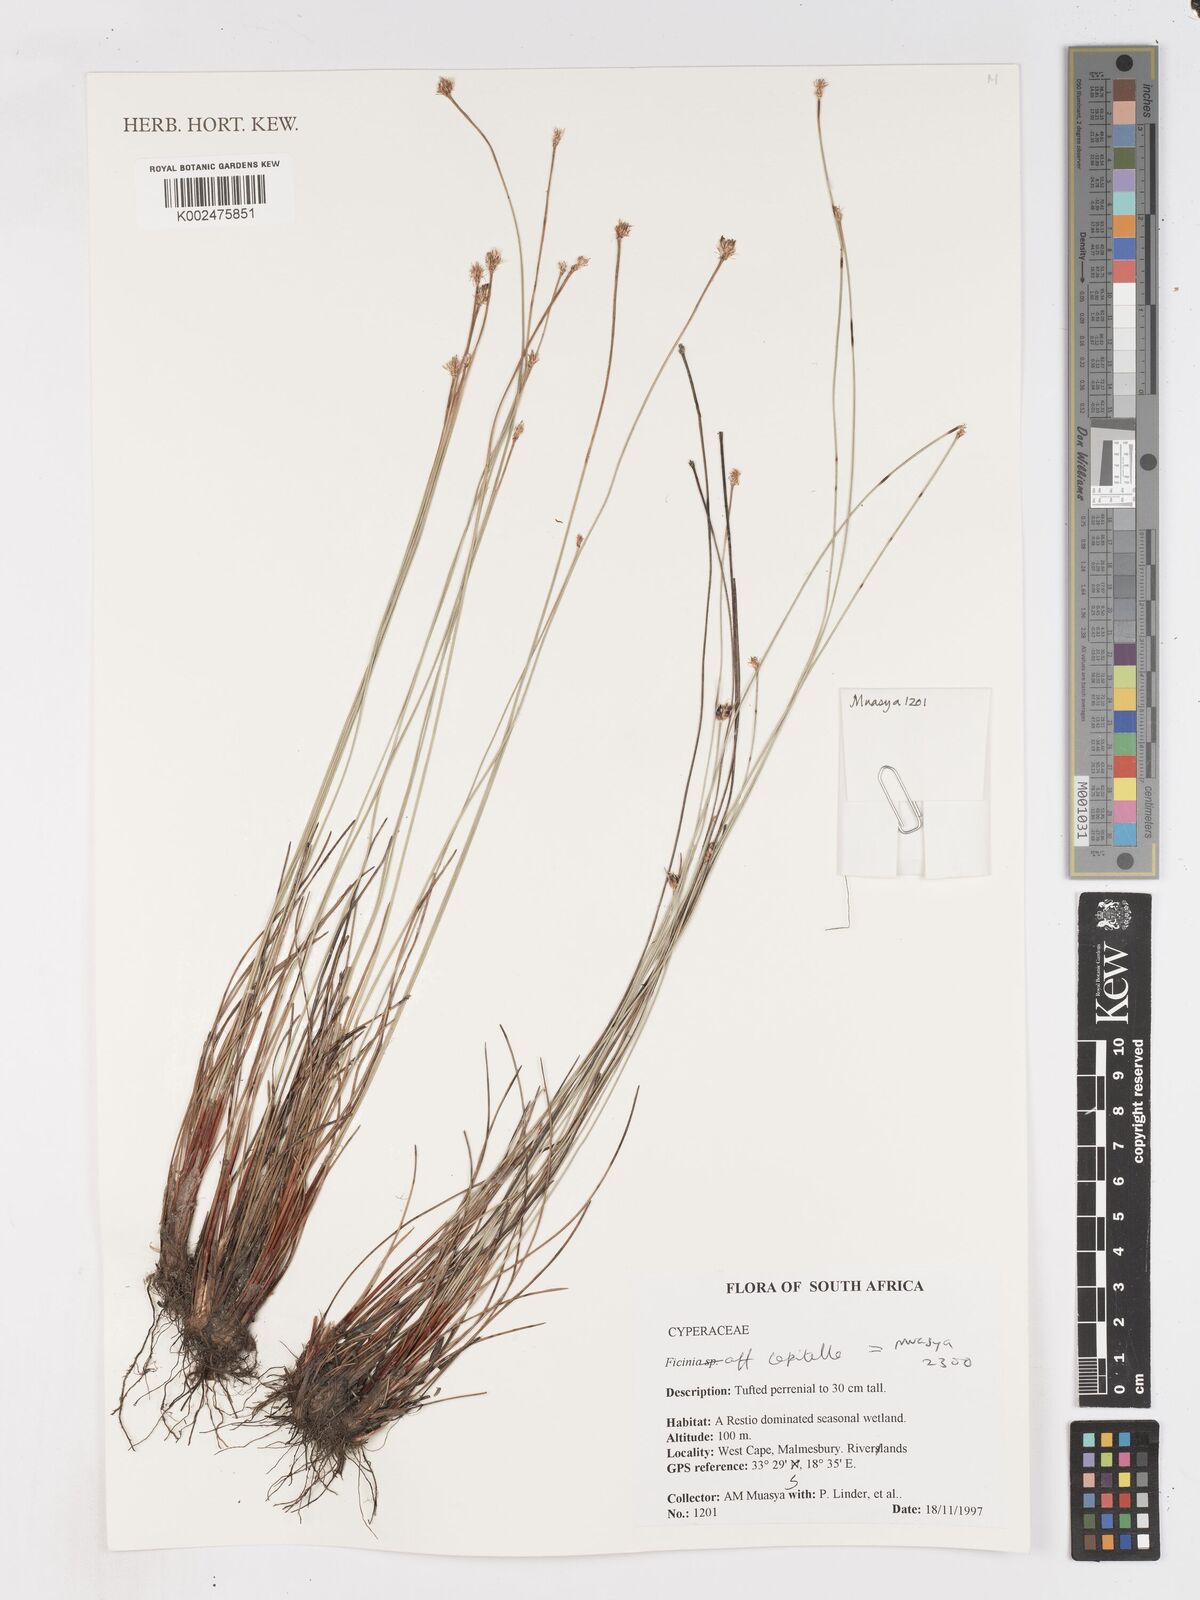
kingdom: Plantae
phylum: Tracheophyta
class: Liliopsida
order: Poales
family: Cyperaceae
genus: Ficinia
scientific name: Ficinia capitella
